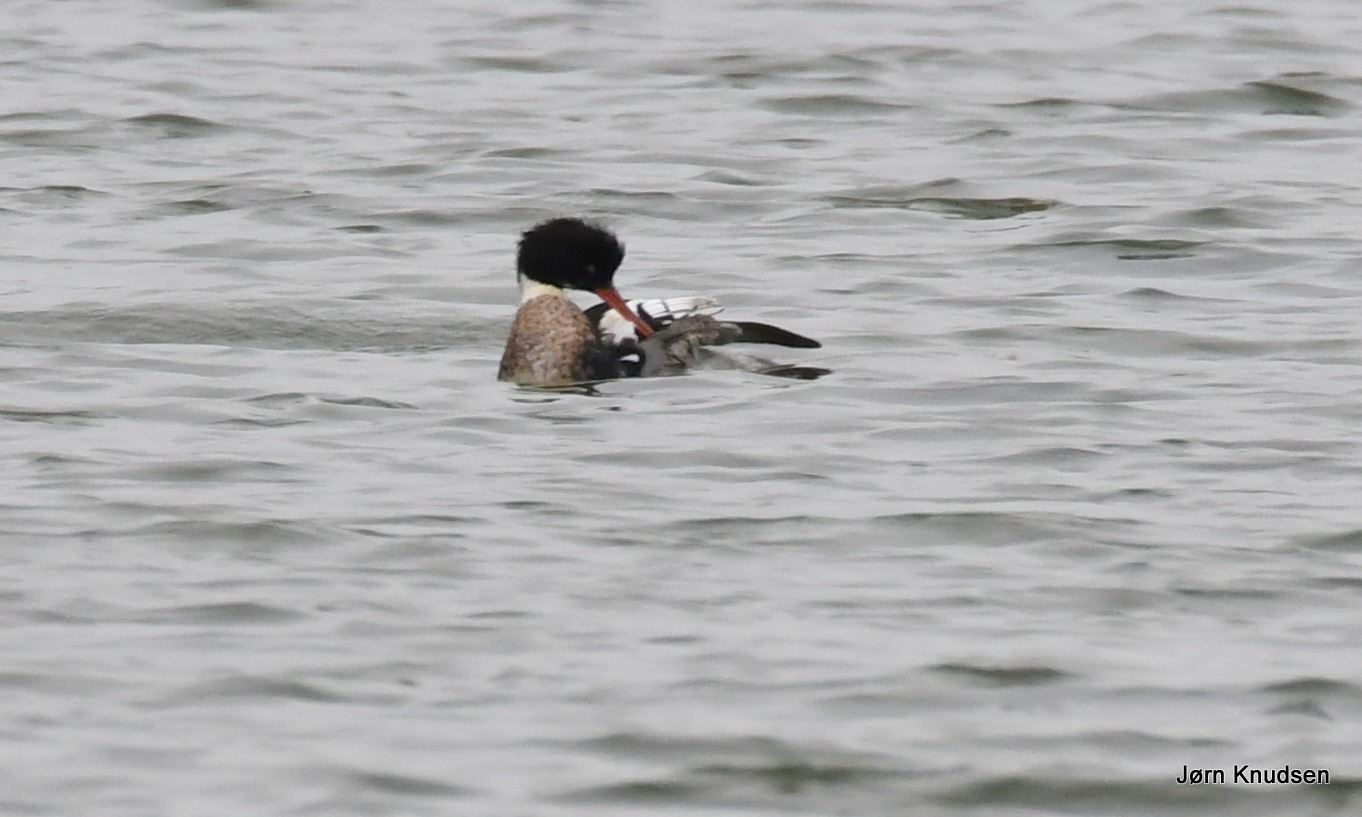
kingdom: Animalia
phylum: Chordata
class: Aves
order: Anseriformes
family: Anatidae
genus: Mergus
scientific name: Mergus serrator
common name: Toppet skallesluger
